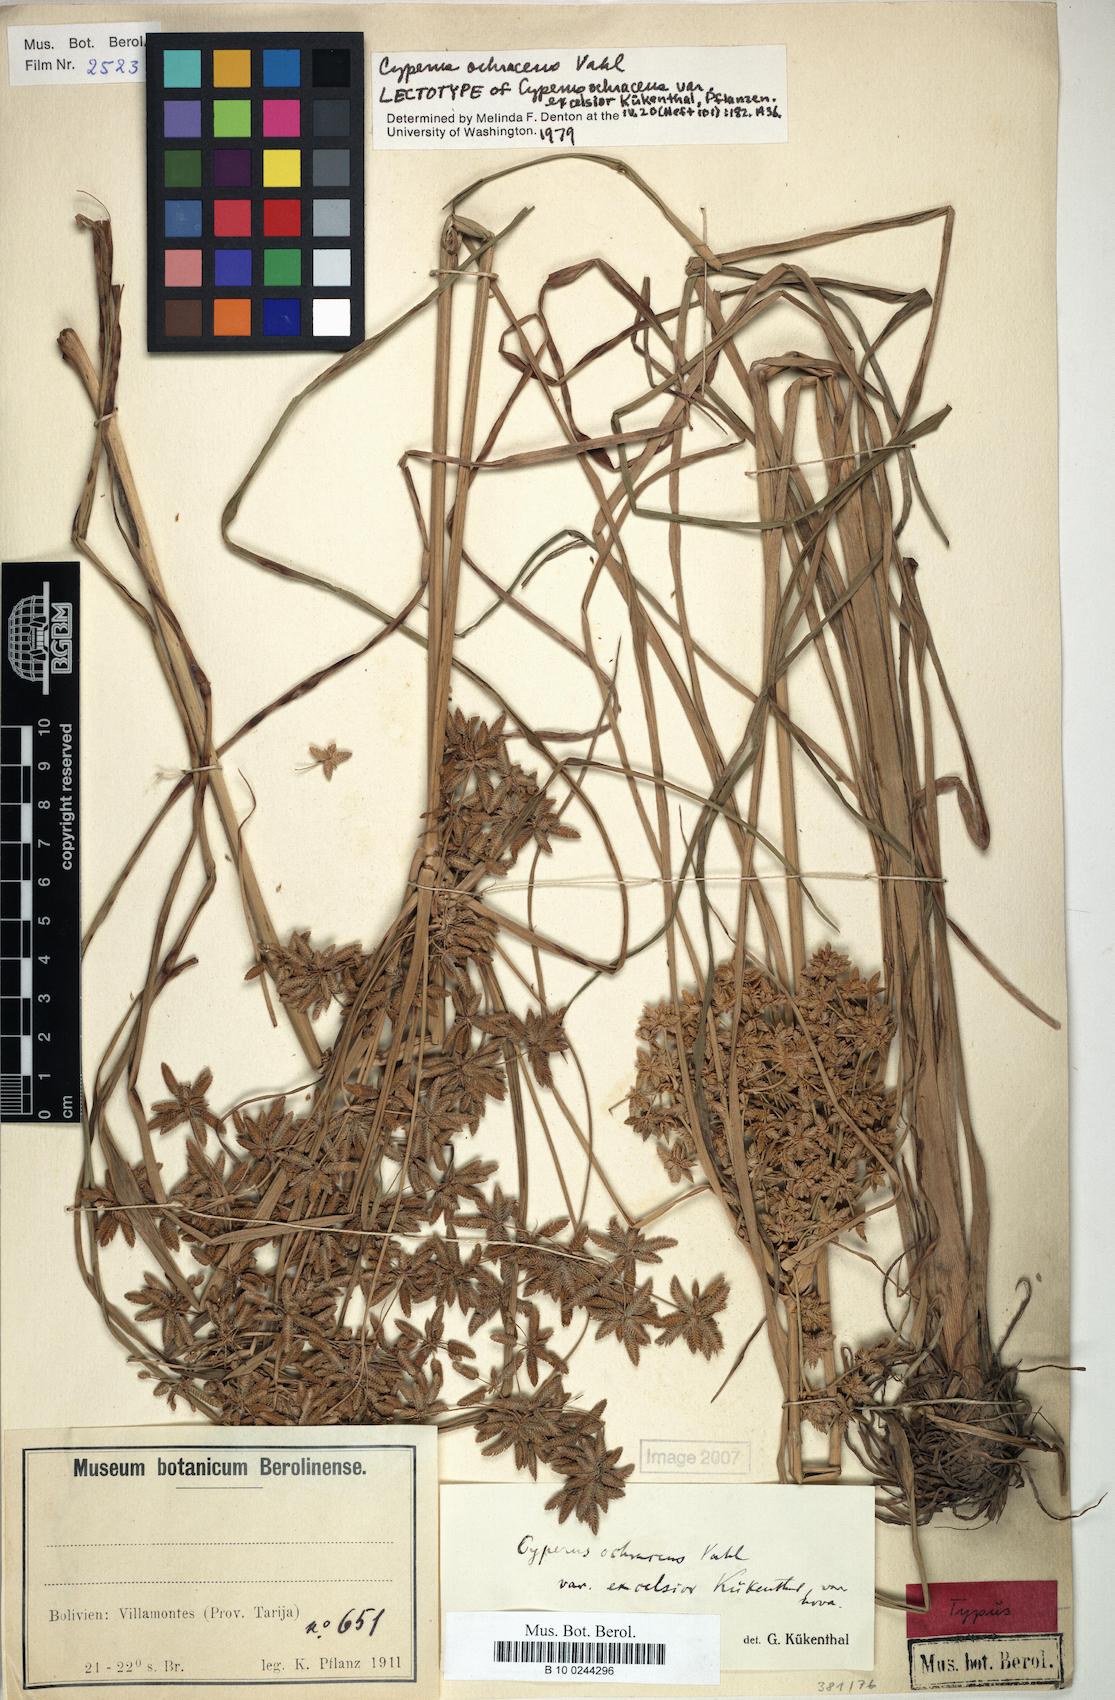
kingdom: Plantae
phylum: Tracheophyta
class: Liliopsida
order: Poales
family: Cyperaceae
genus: Cyperus
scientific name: Cyperus ochraceus
